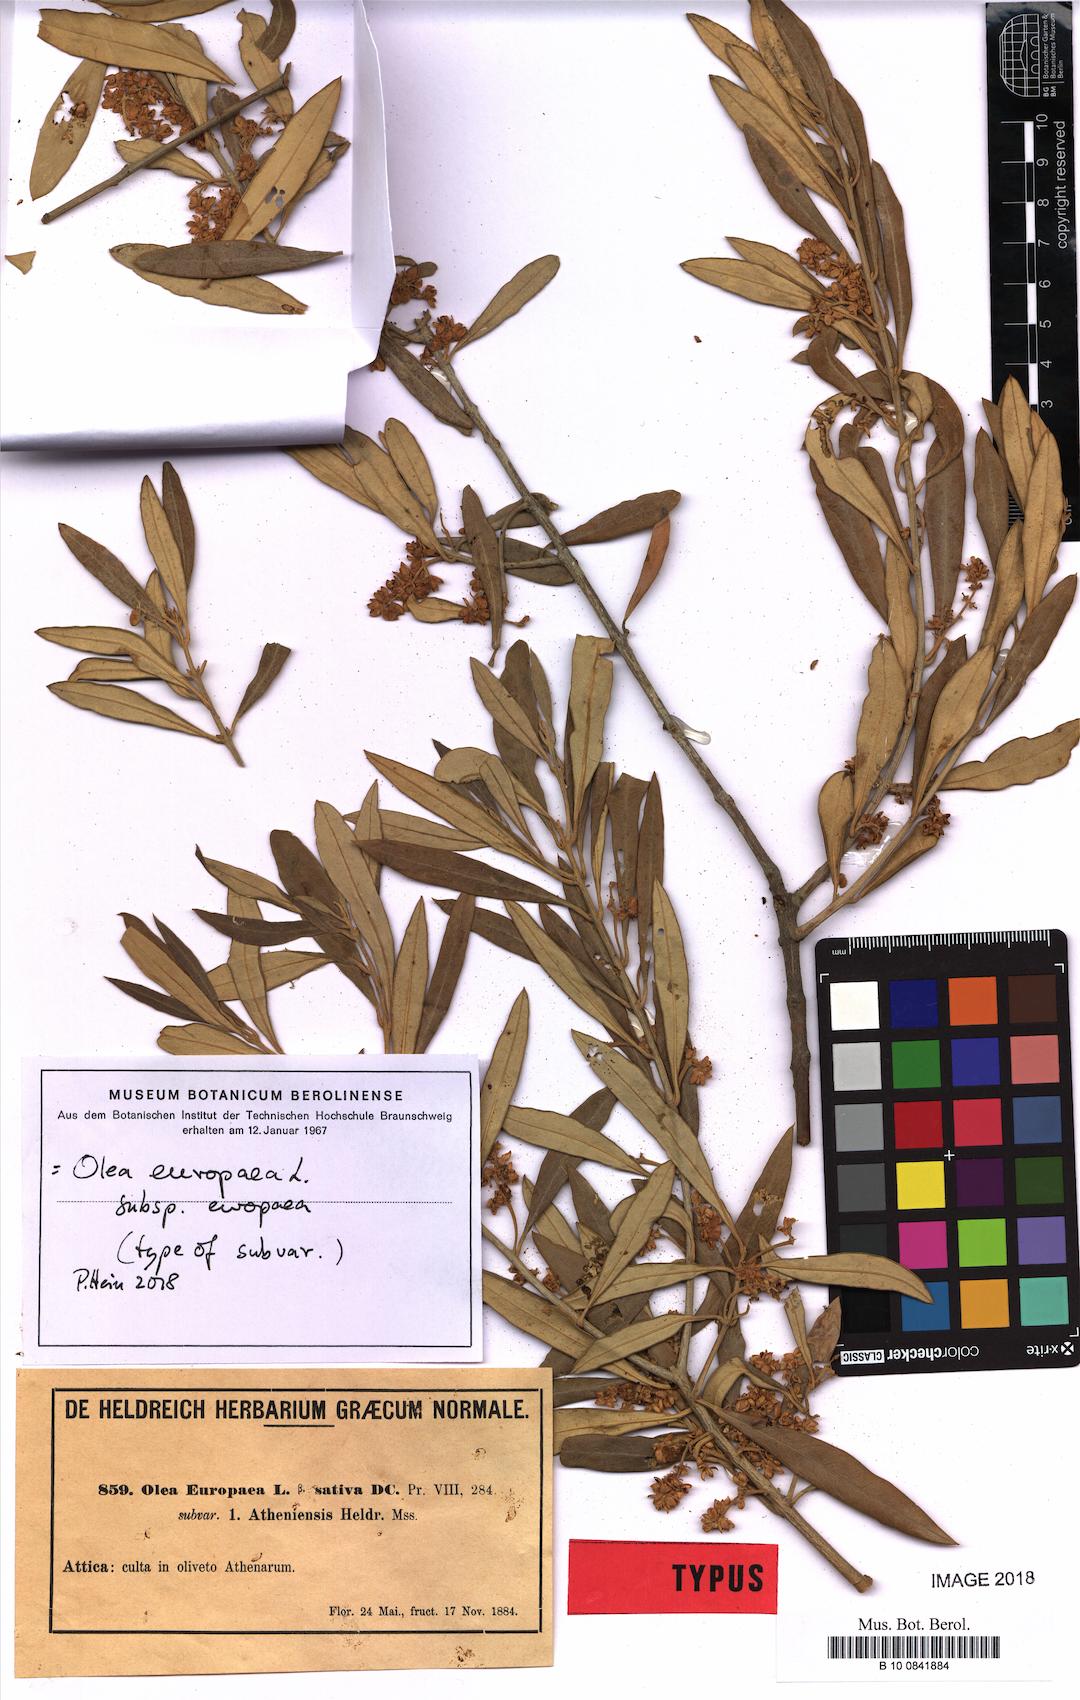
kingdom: Plantae
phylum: Tracheophyta
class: Magnoliopsida
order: Lamiales
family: Oleaceae
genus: Olea
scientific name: Olea europaea
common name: Olive
